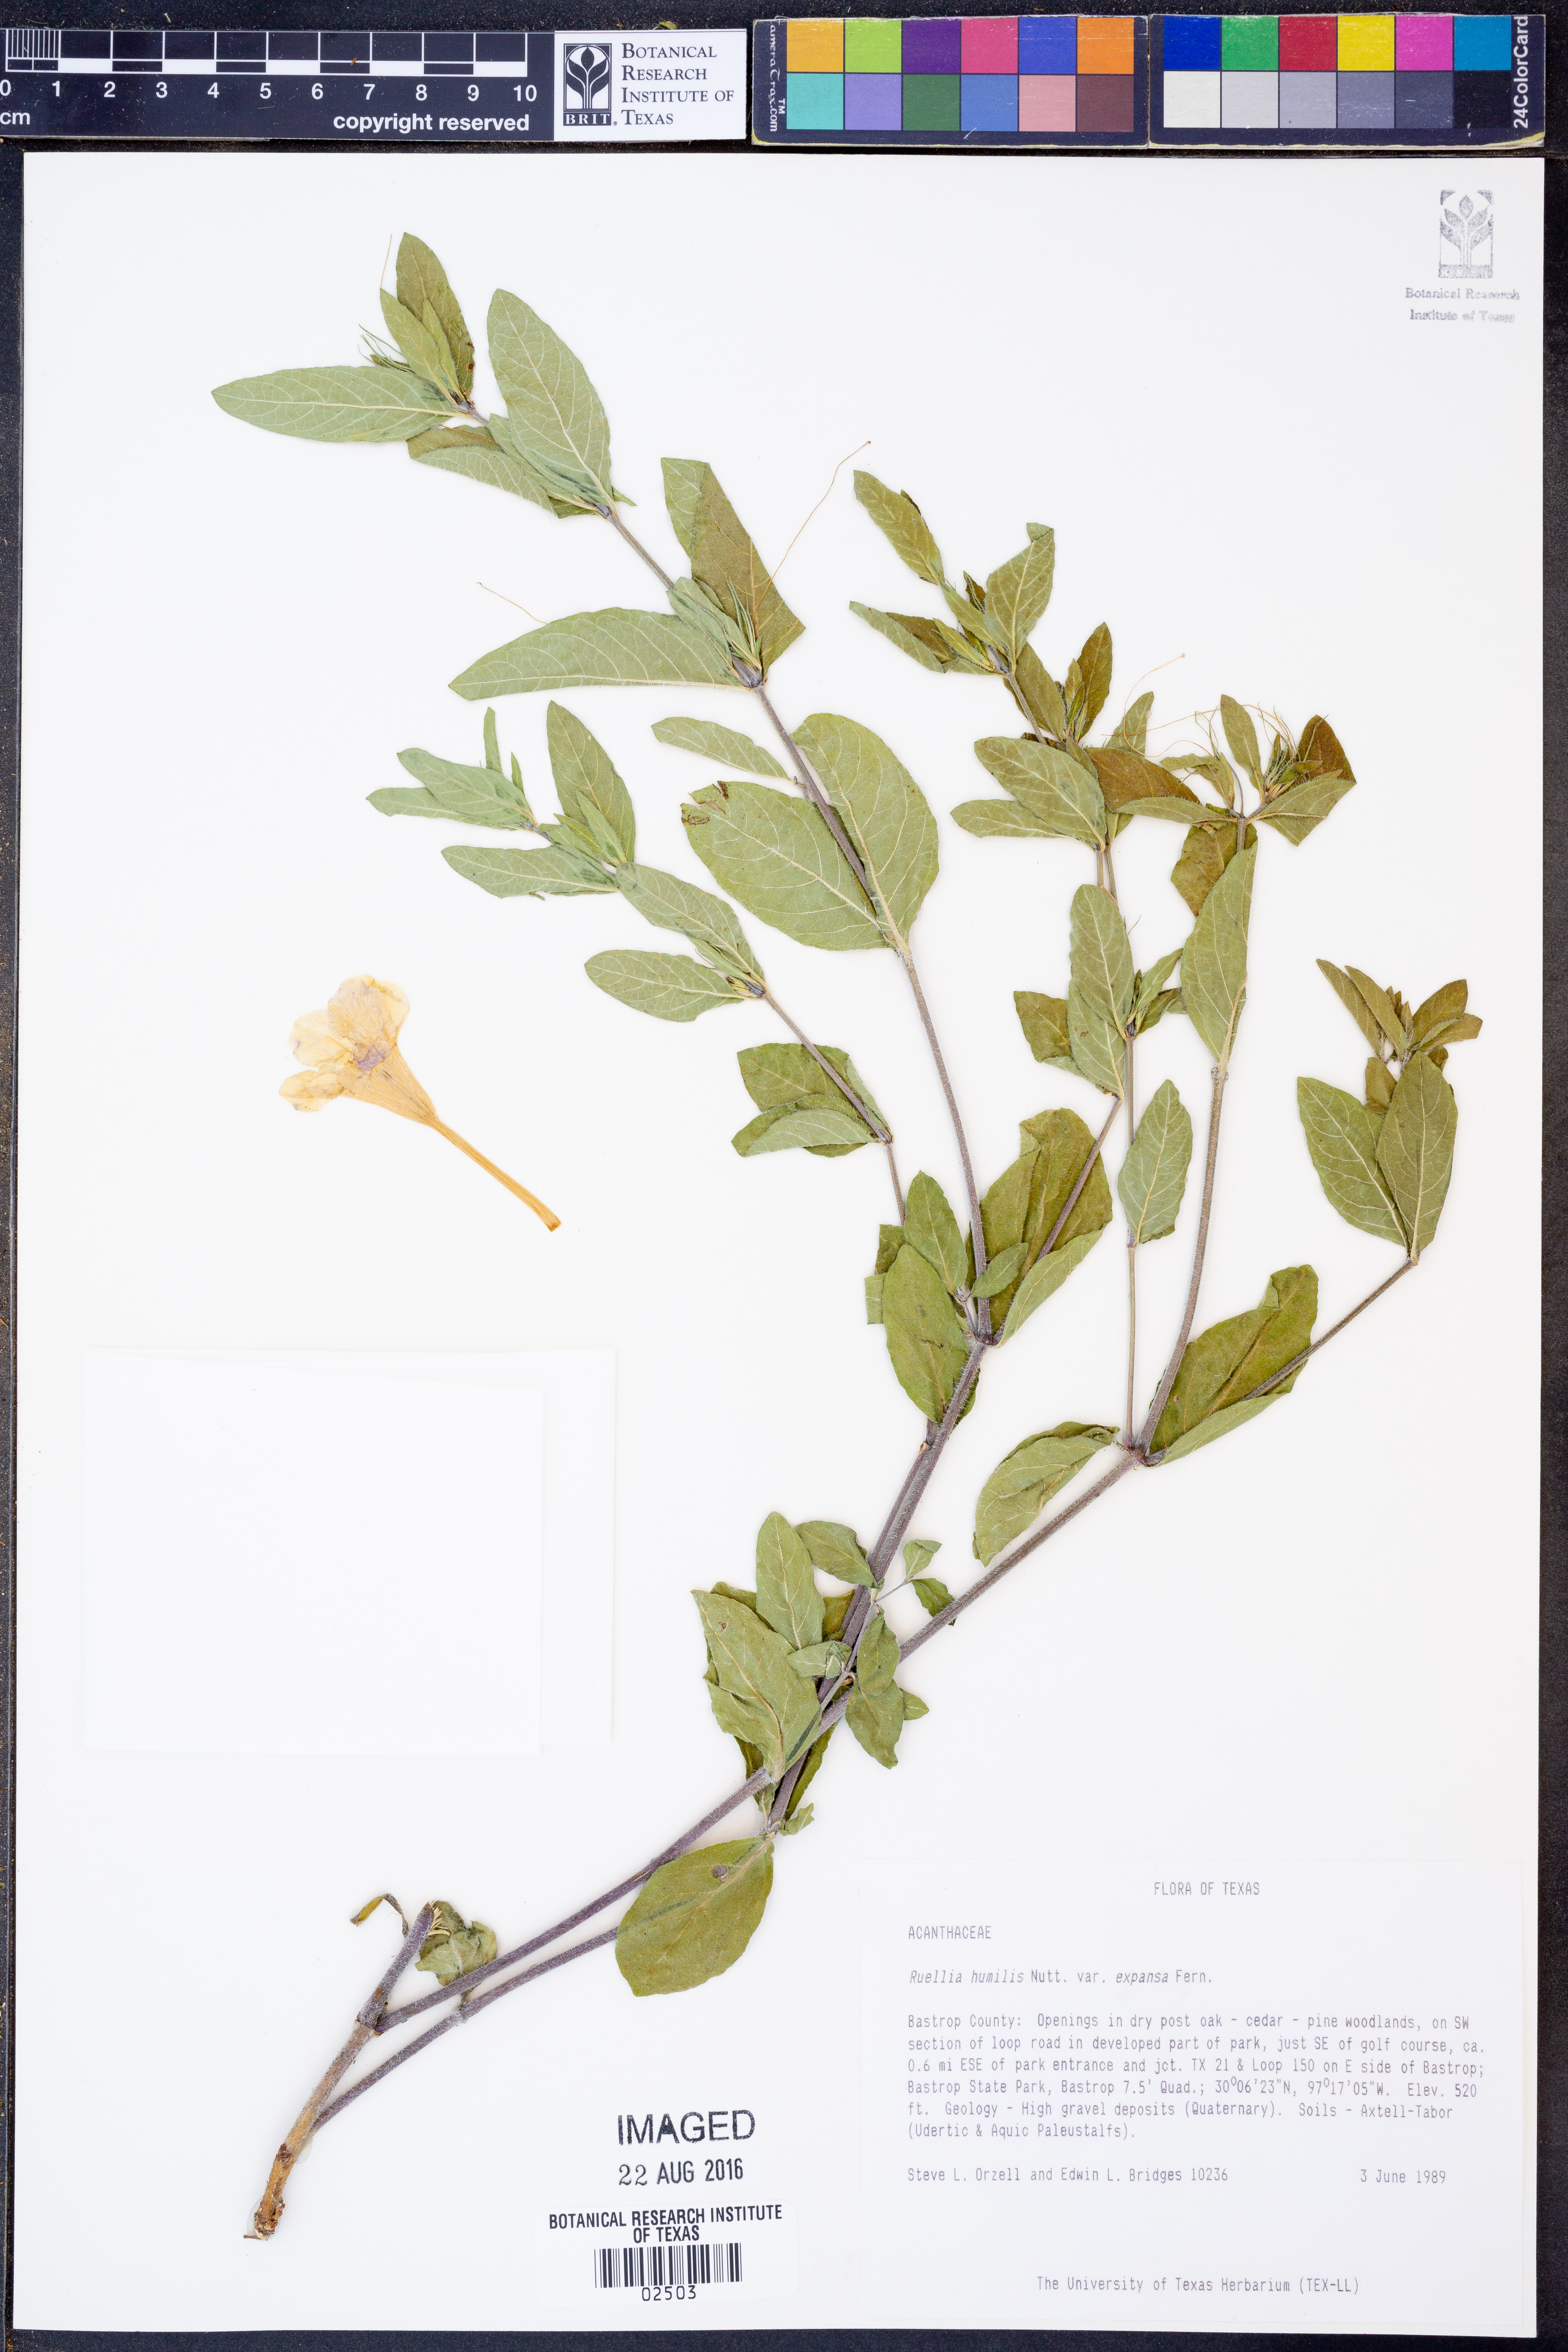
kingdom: Plantae
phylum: Tracheophyta
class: Magnoliopsida
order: Lamiales
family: Acanthaceae
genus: Ruellia
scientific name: Ruellia humilis
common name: Fringe-leaf ruellia
